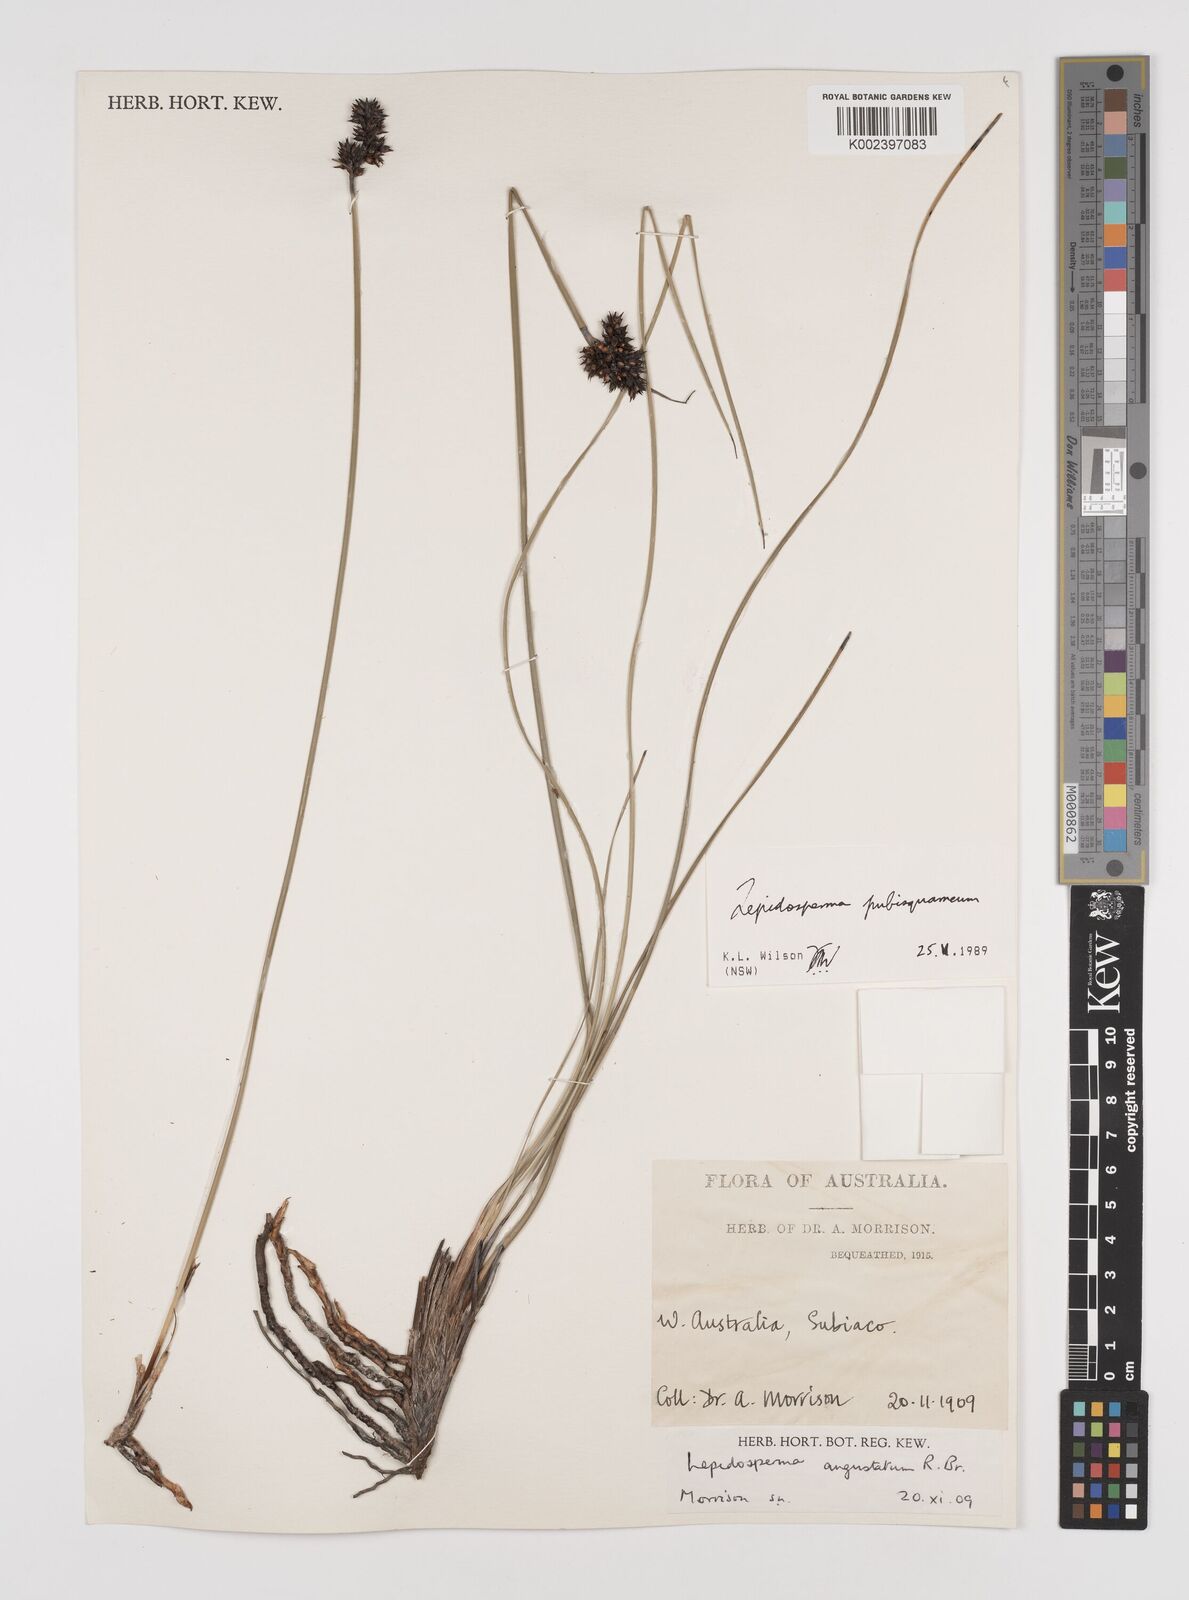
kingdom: Plantae
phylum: Tracheophyta
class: Liliopsida
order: Poales
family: Cyperaceae
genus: Lepidosperma
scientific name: Lepidosperma pubisquameum
